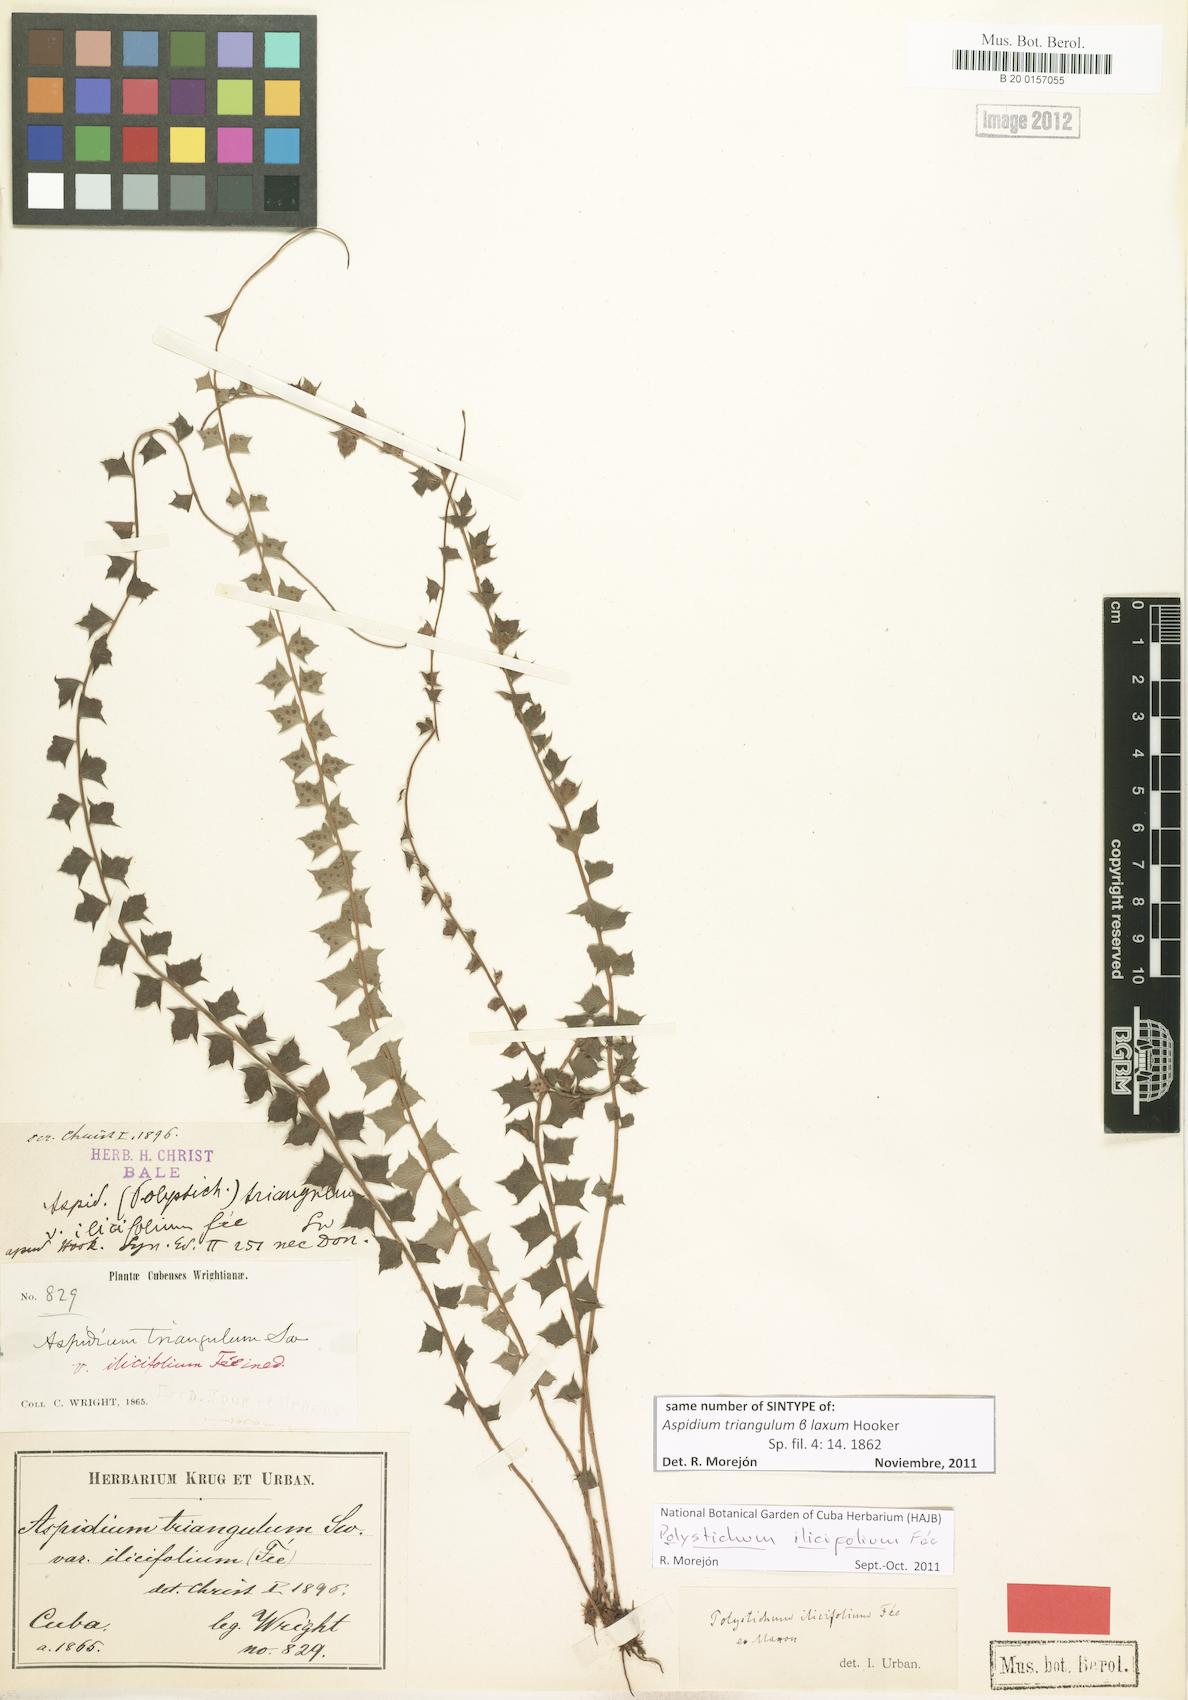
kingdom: Plantae
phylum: Tracheophyta
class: Polypodiopsida
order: Polypodiales
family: Dryopteridaceae
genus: Polystichum
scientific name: Polystichum aquifolium
